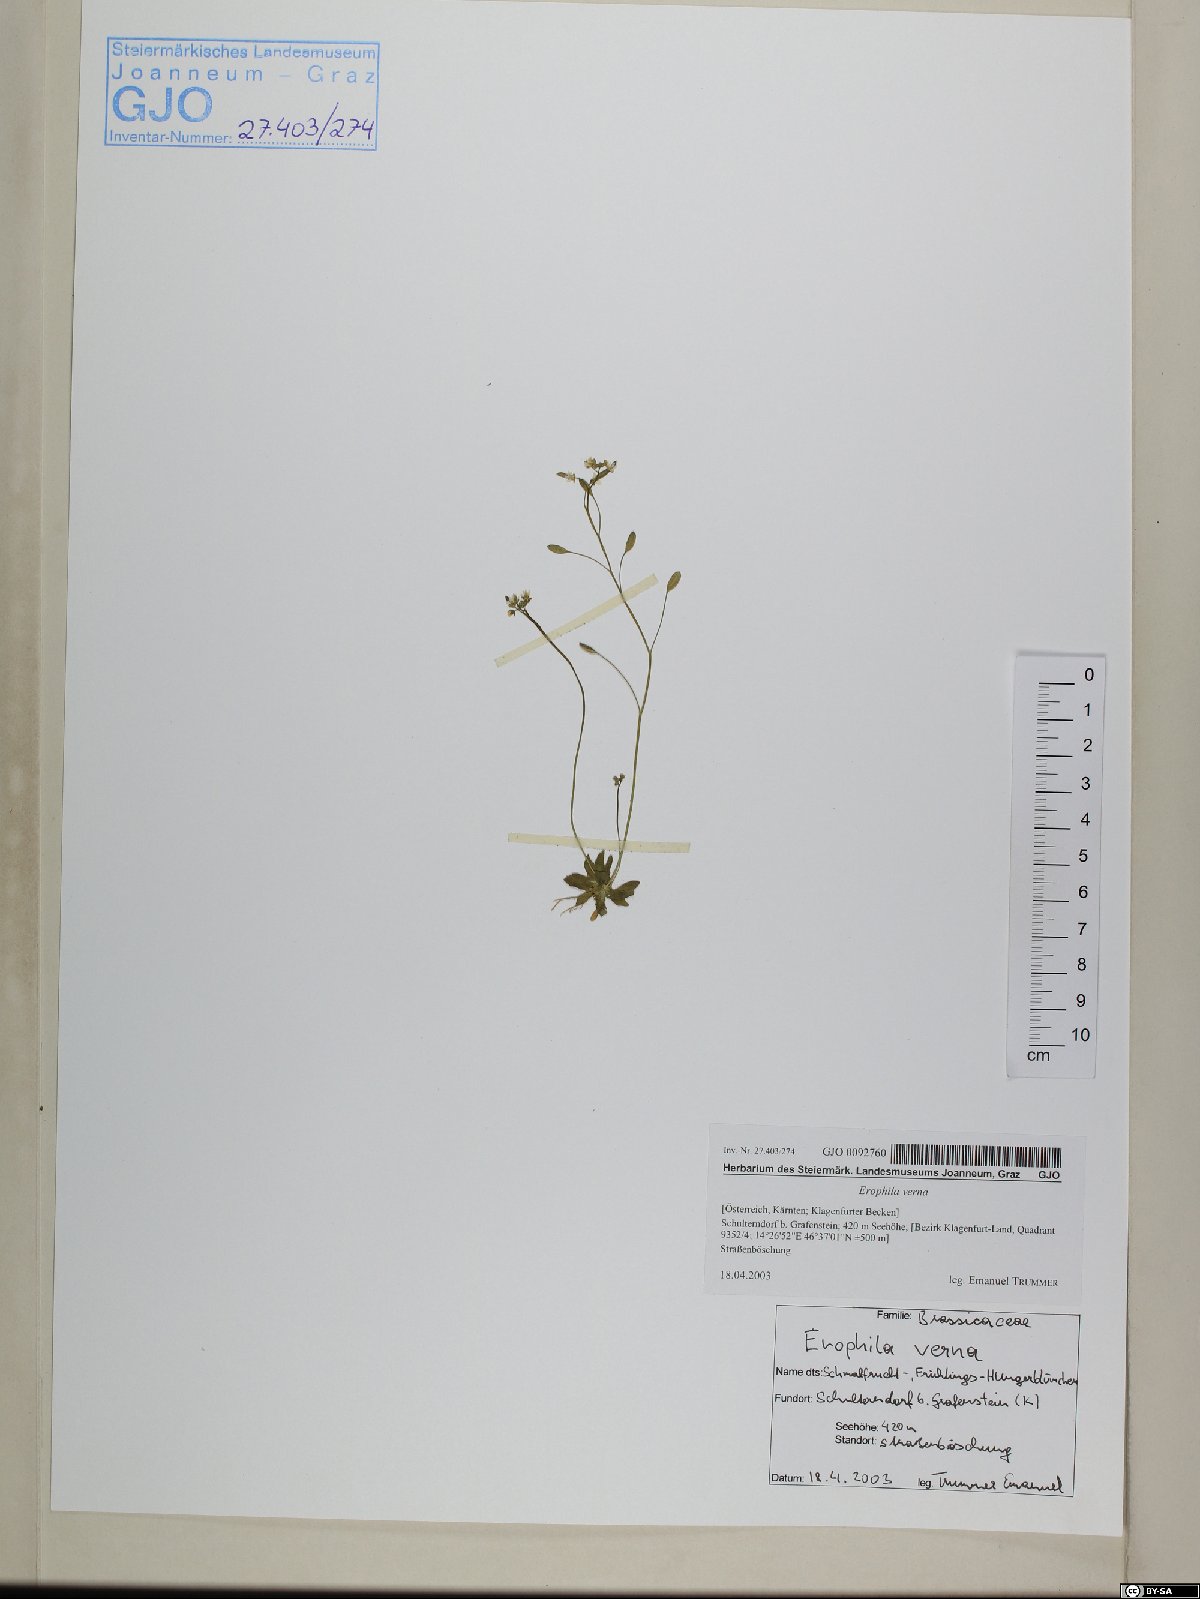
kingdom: Plantae
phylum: Tracheophyta
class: Magnoliopsida
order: Brassicales
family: Brassicaceae
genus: Draba
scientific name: Draba verna
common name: Spring draba
